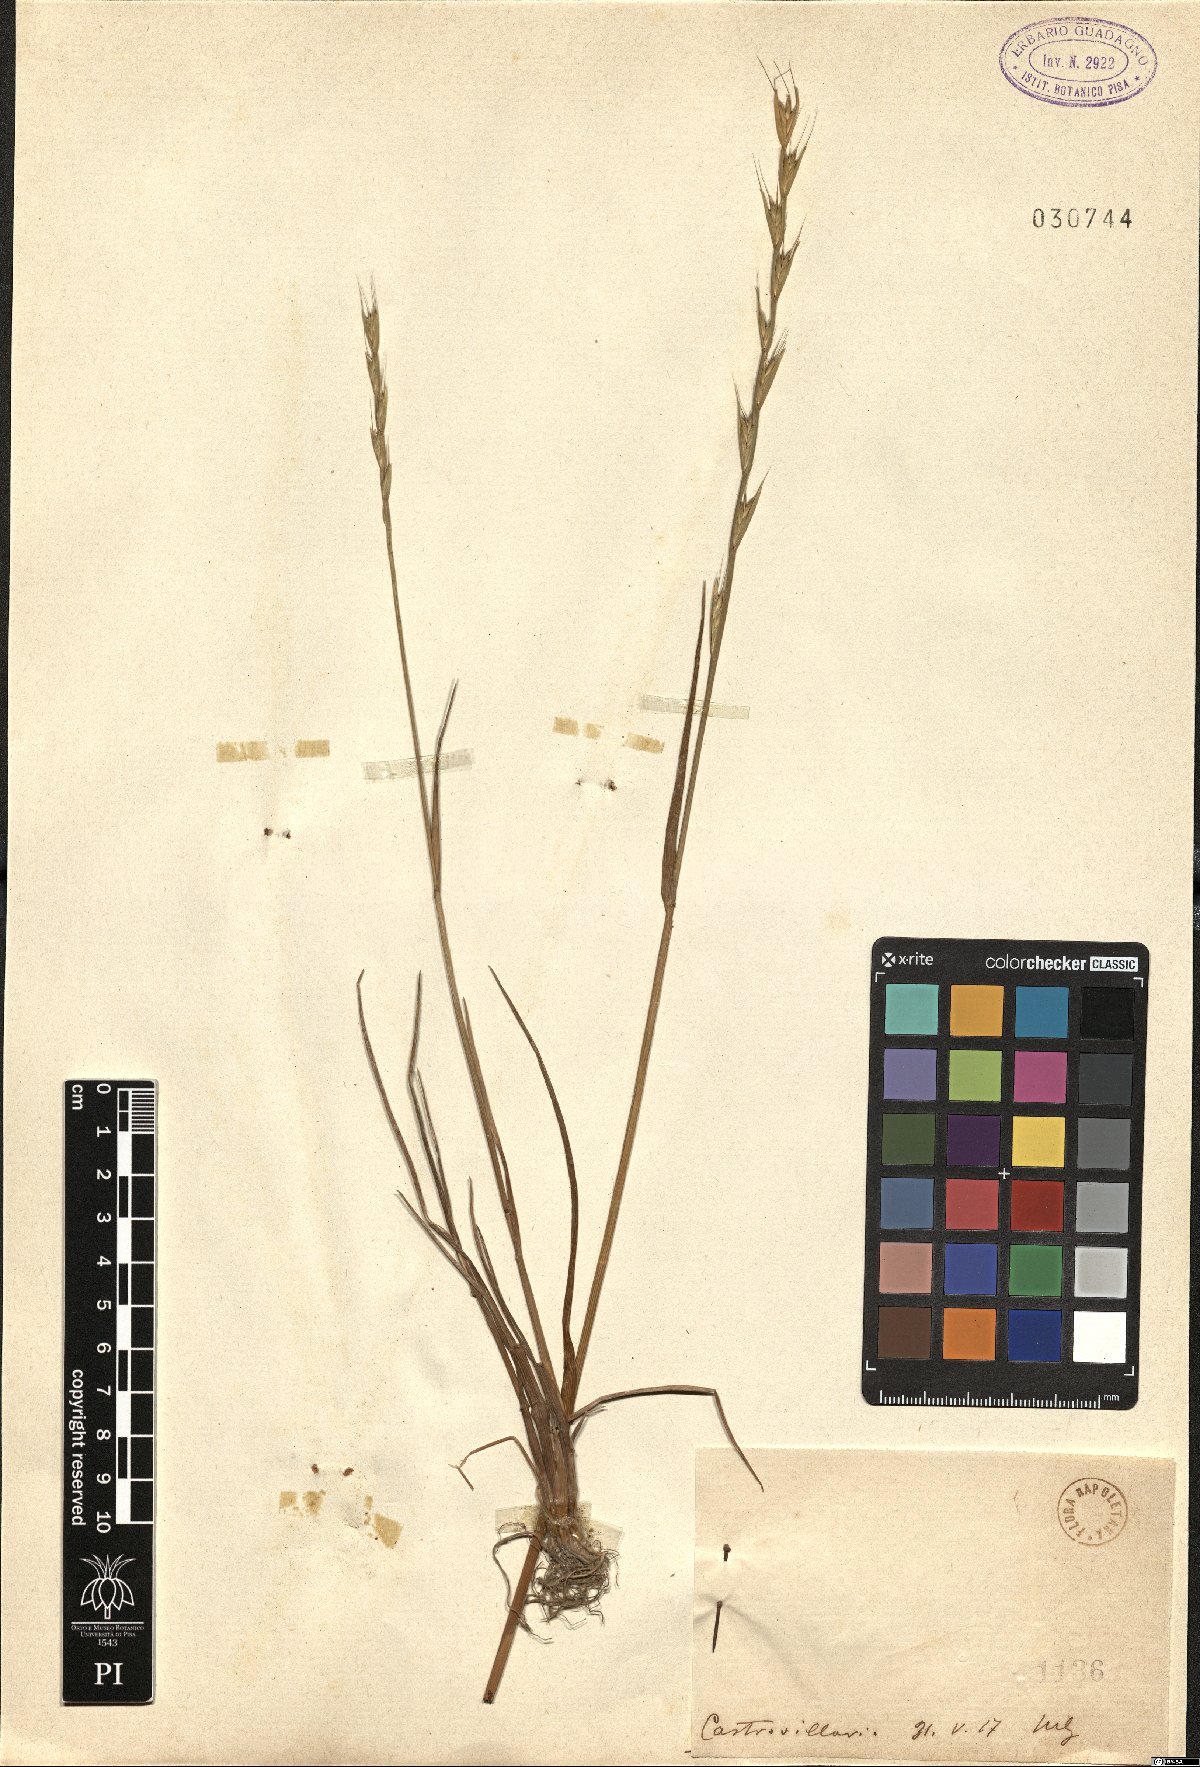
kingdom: Plantae
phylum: Tracheophyta
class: Liliopsida
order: Poales
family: Poaceae
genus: Lolium
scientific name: Lolium
